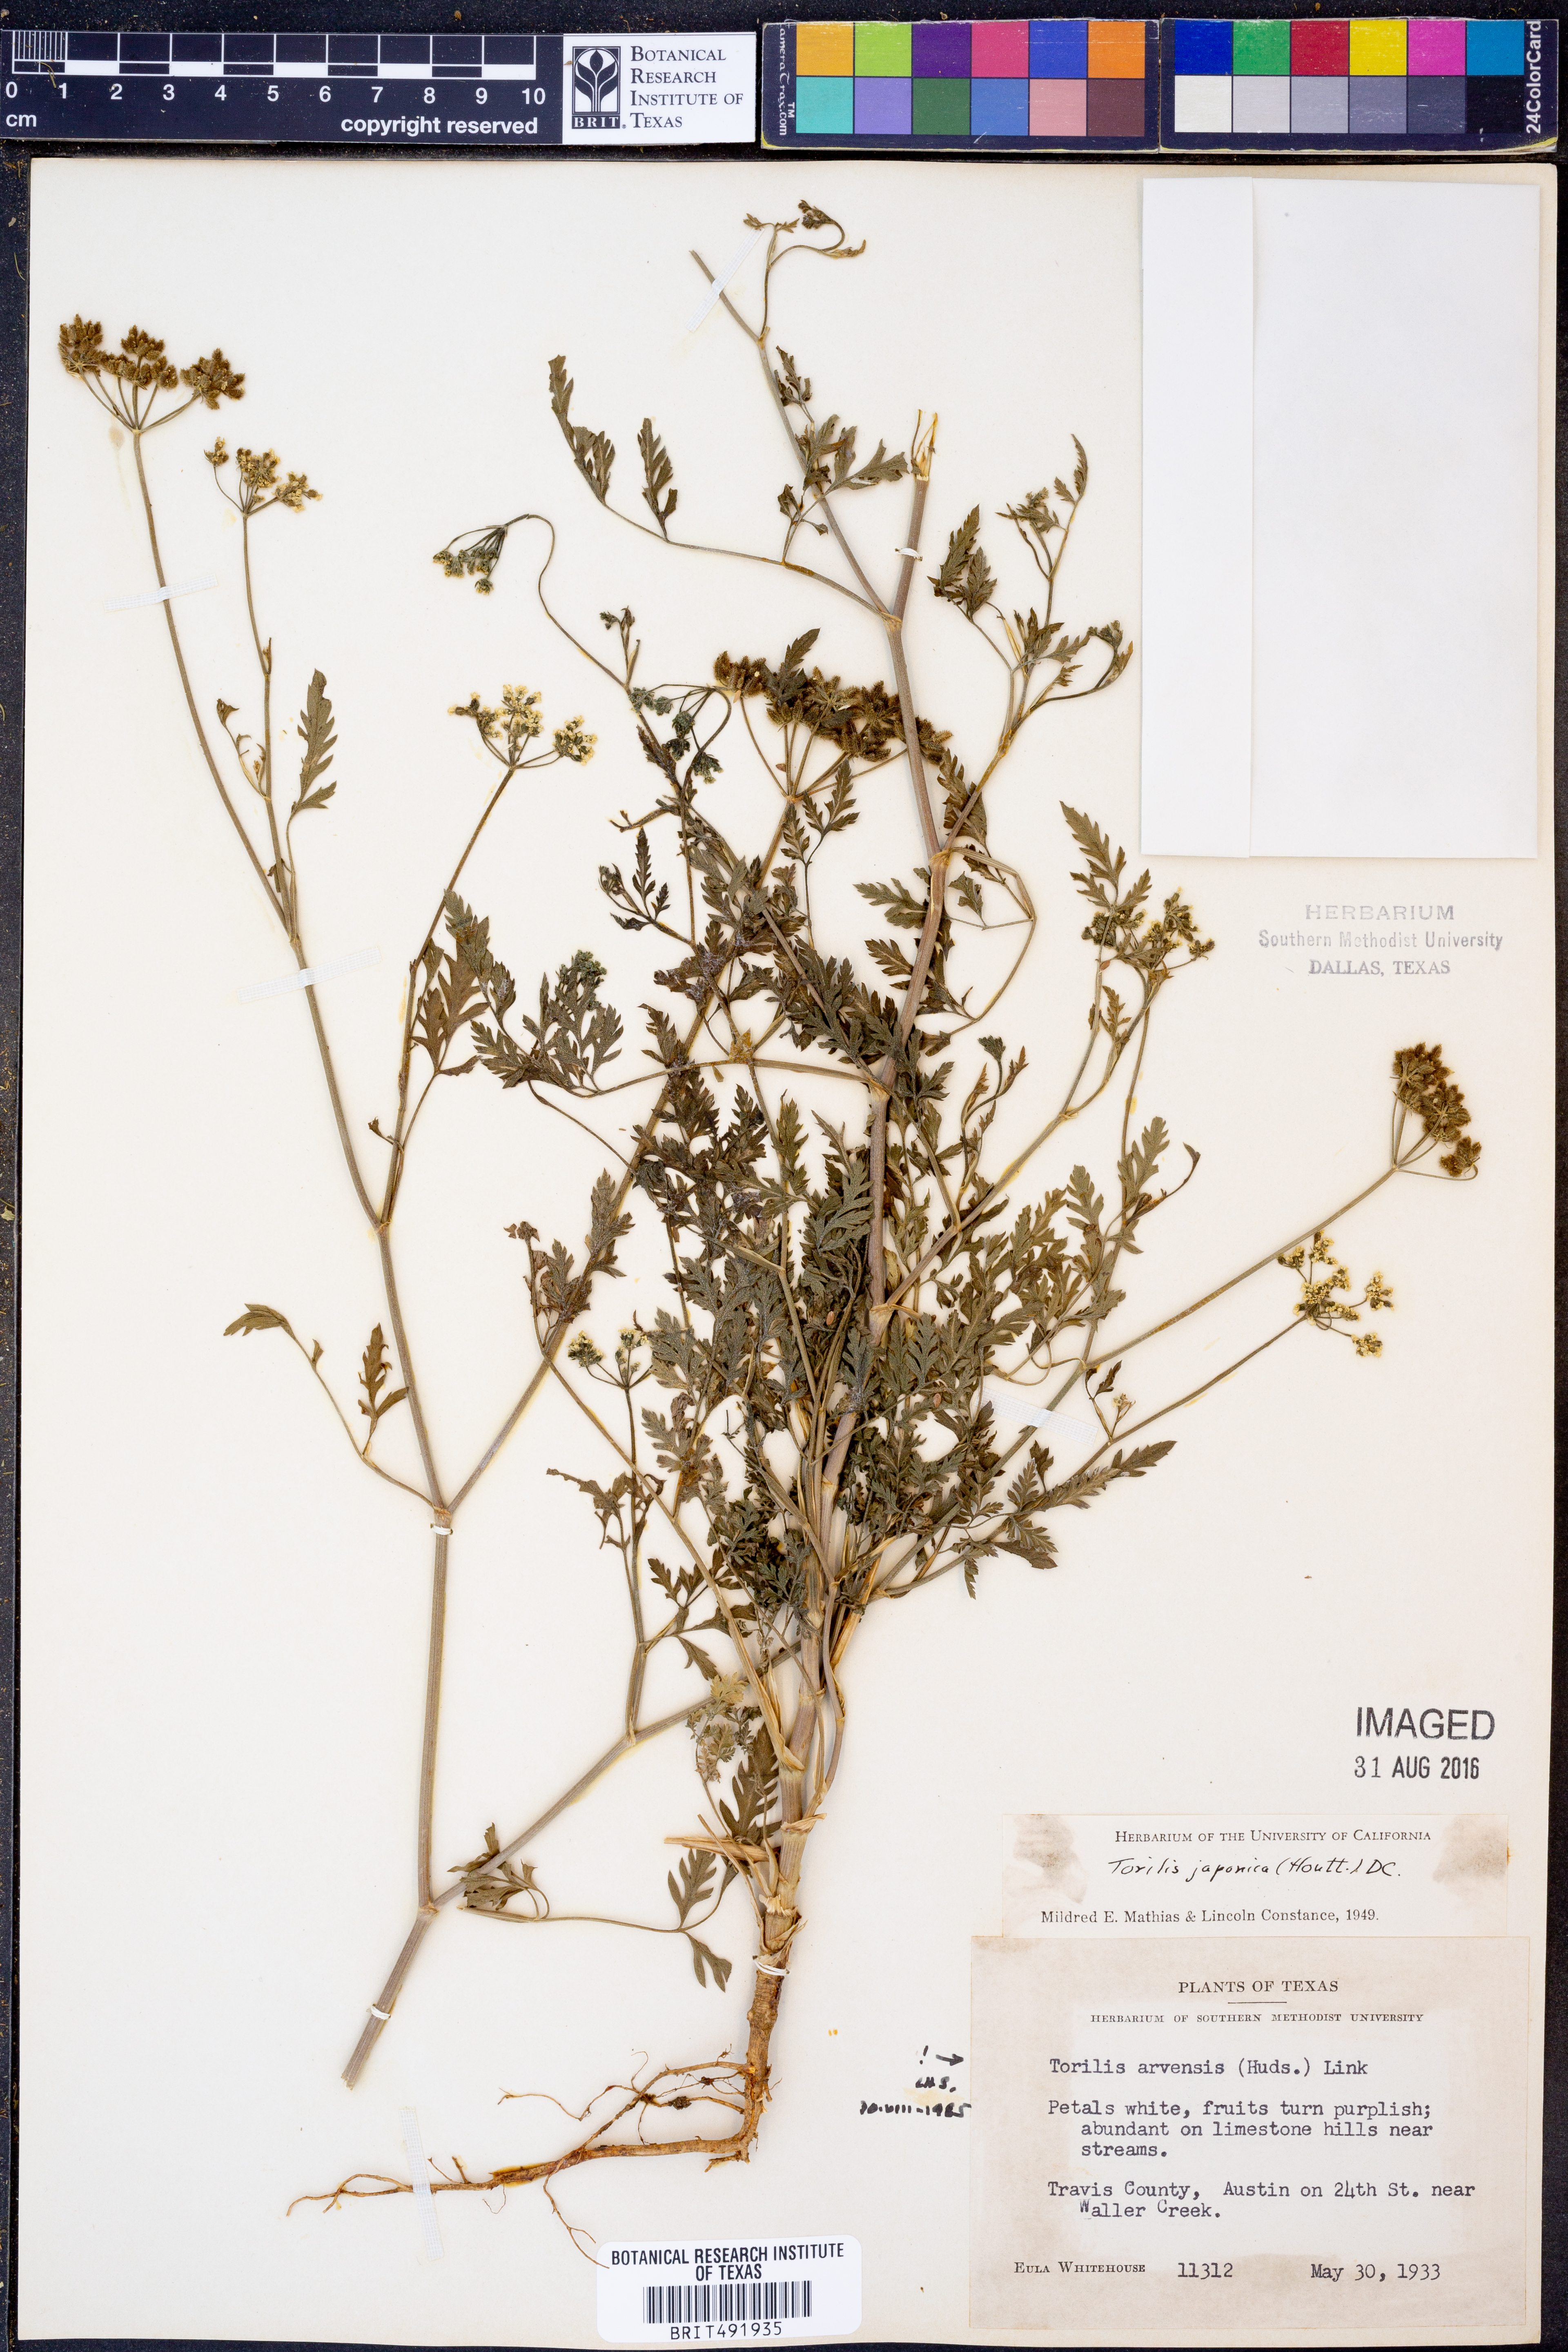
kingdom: Plantae
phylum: Tracheophyta
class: Magnoliopsida
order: Apiales
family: Apiaceae
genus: Torilis
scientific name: Torilis arvensis
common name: Spreading hedge-parsley
